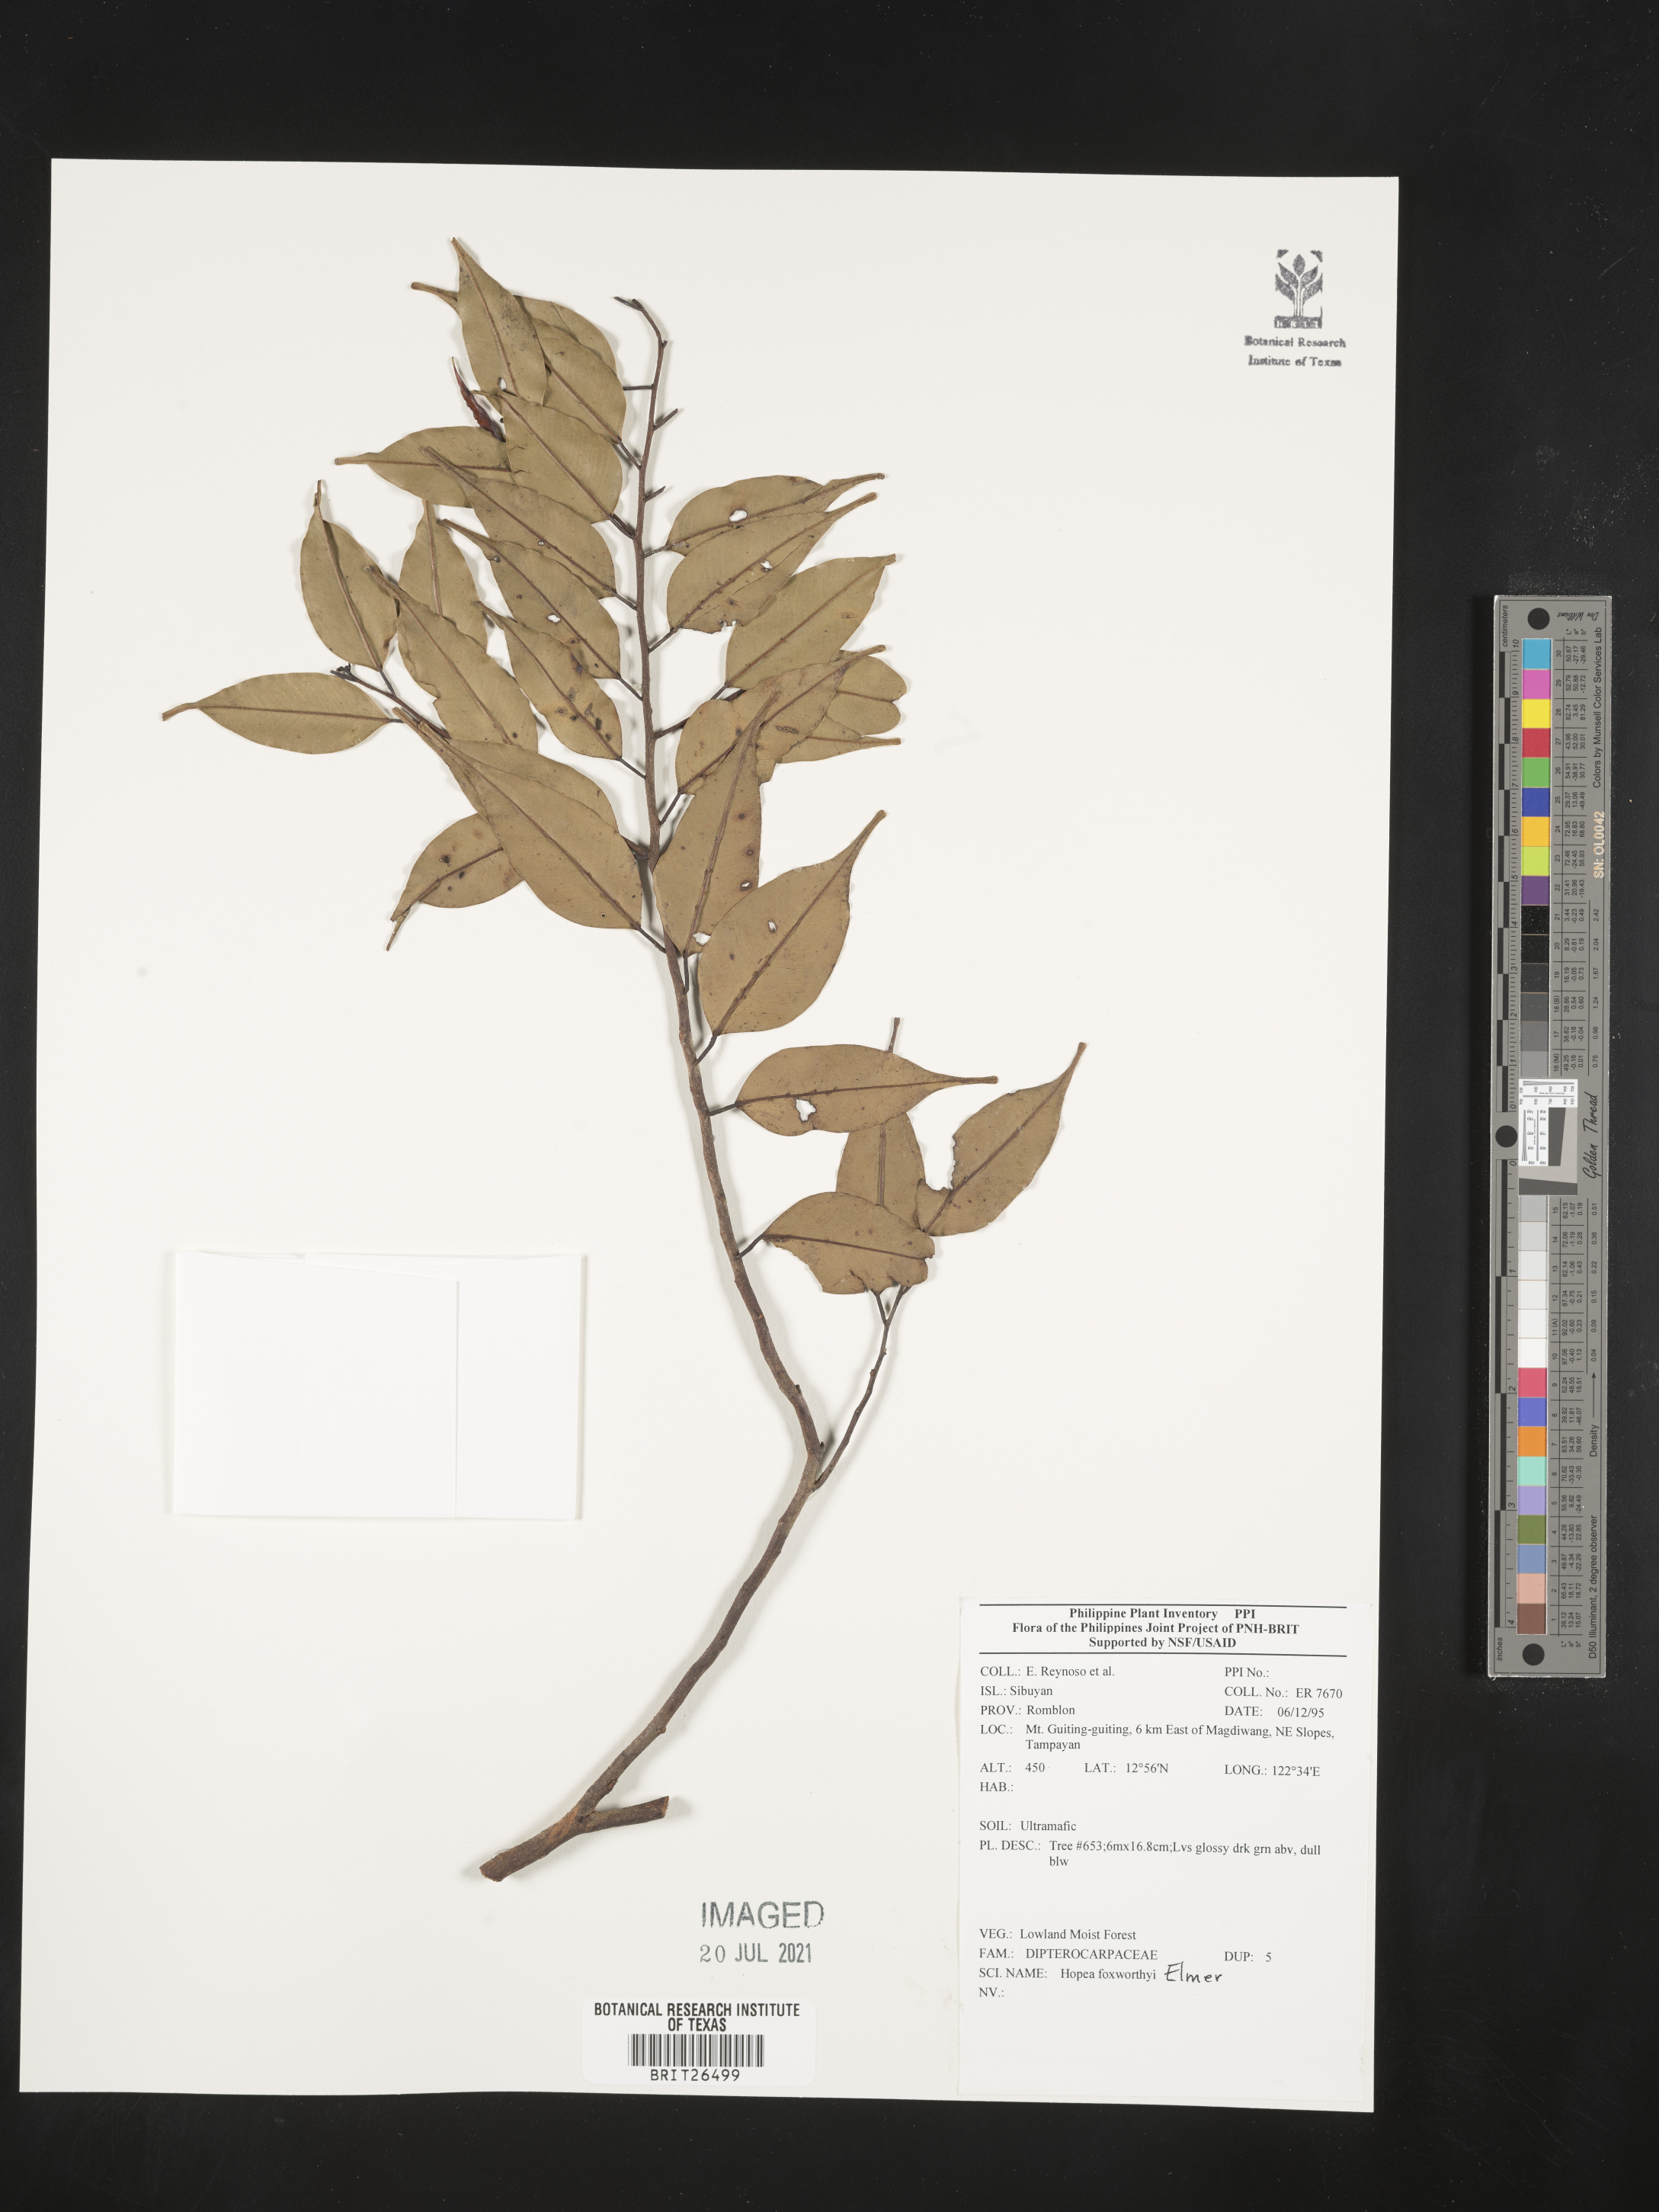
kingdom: Plantae
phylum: Tracheophyta
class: Magnoliopsida
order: Malvales
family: Dipterocarpaceae
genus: Hopea
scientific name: Hopea foxworthyi
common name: Dalingdingan
